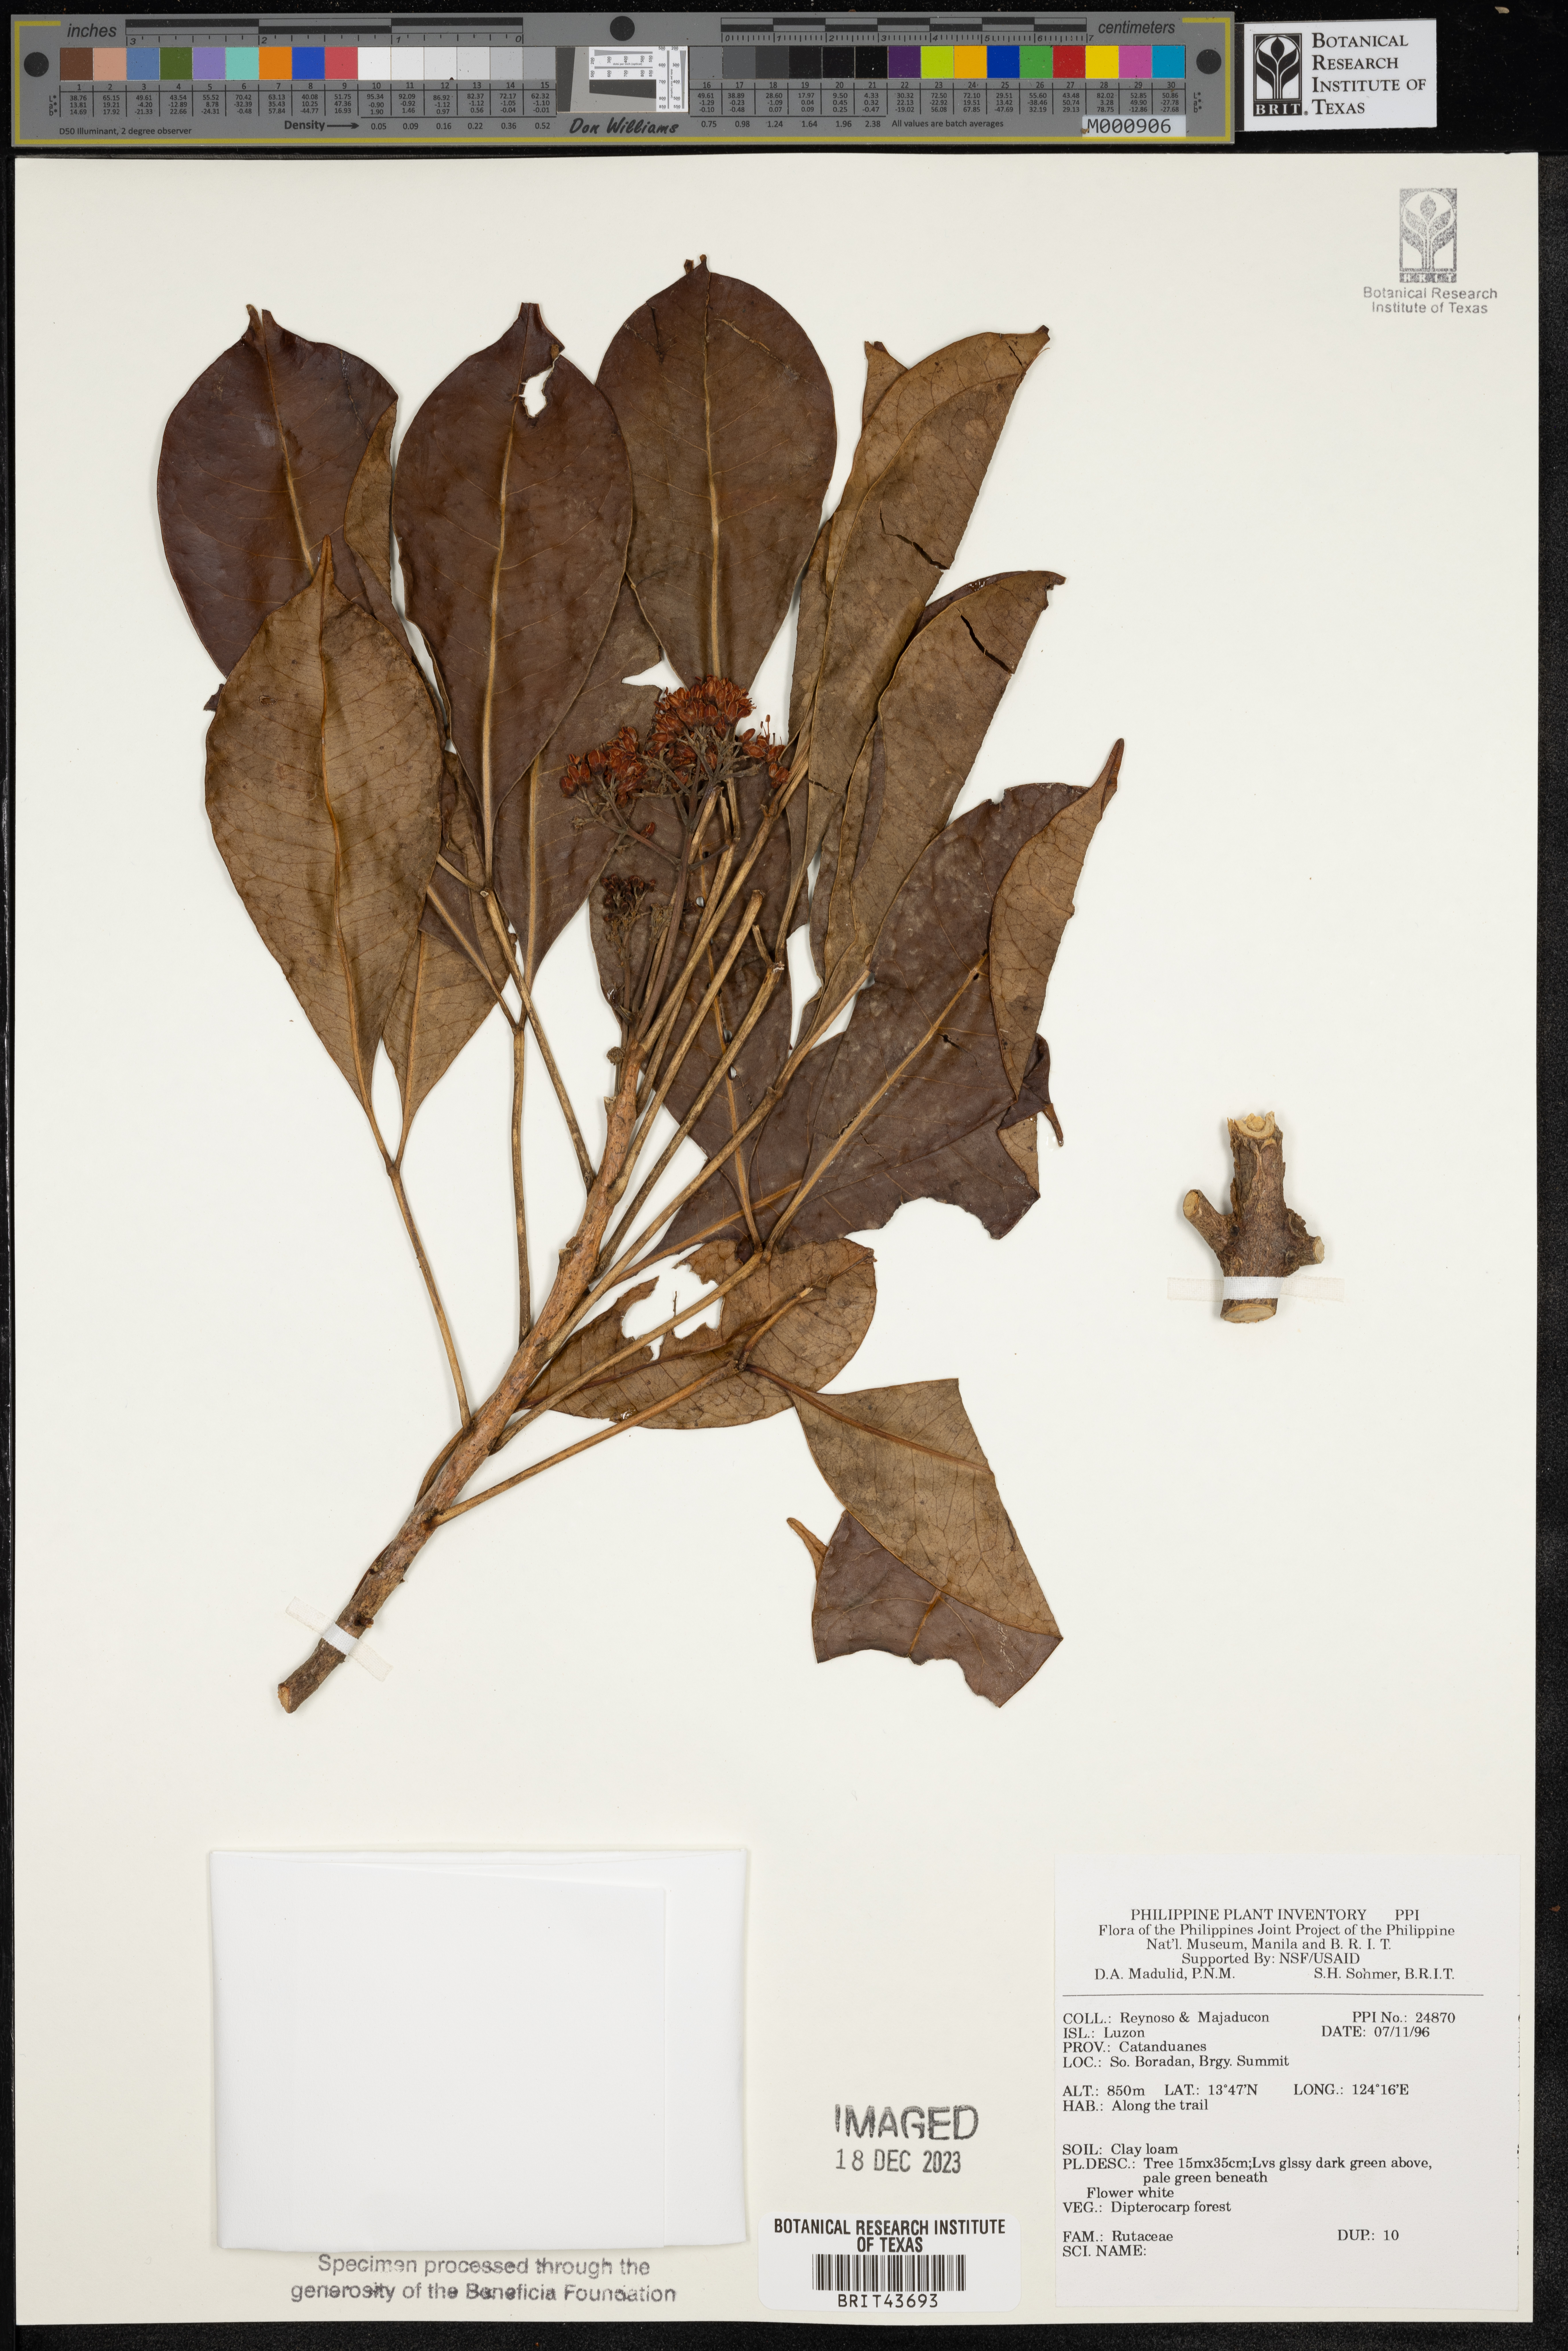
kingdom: Plantae
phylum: Tracheophyta
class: Magnoliopsida
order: Sapindales
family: Rutaceae
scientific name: Rutaceae
